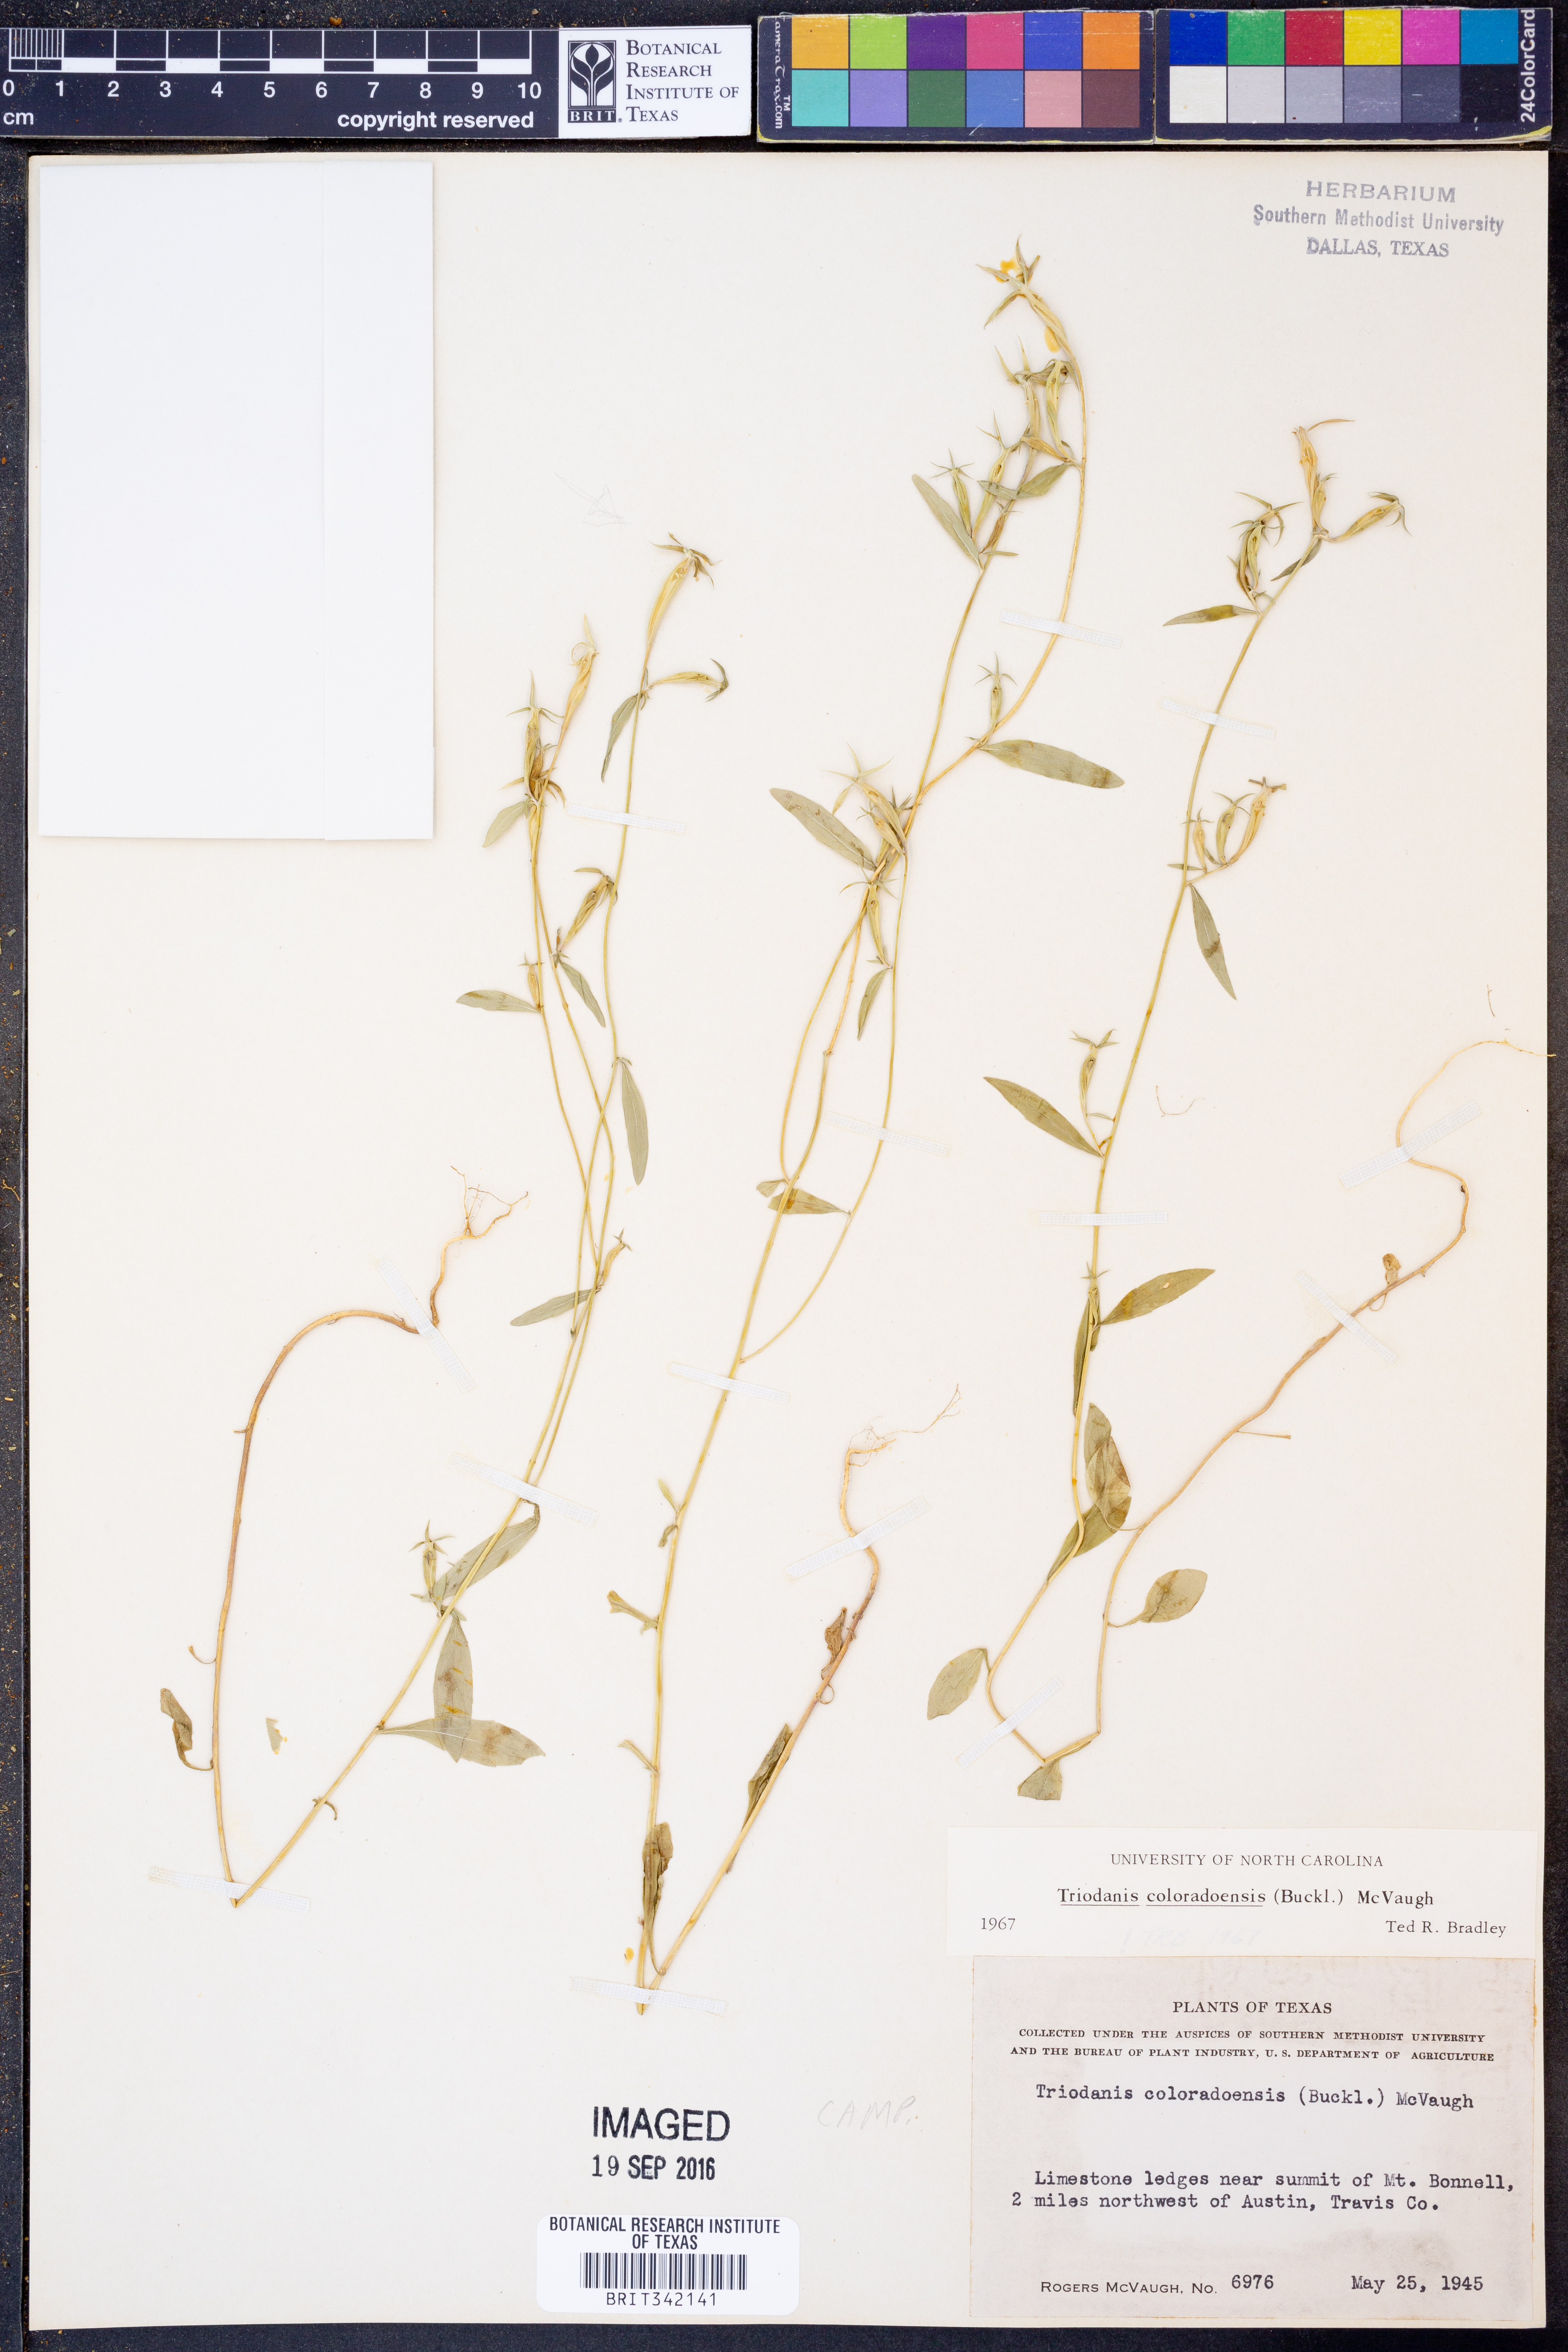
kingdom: Plantae
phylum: Tracheophyta
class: Magnoliopsida
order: Asterales
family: Campanulaceae
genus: Triodanis
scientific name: Triodanis coloradoensis
